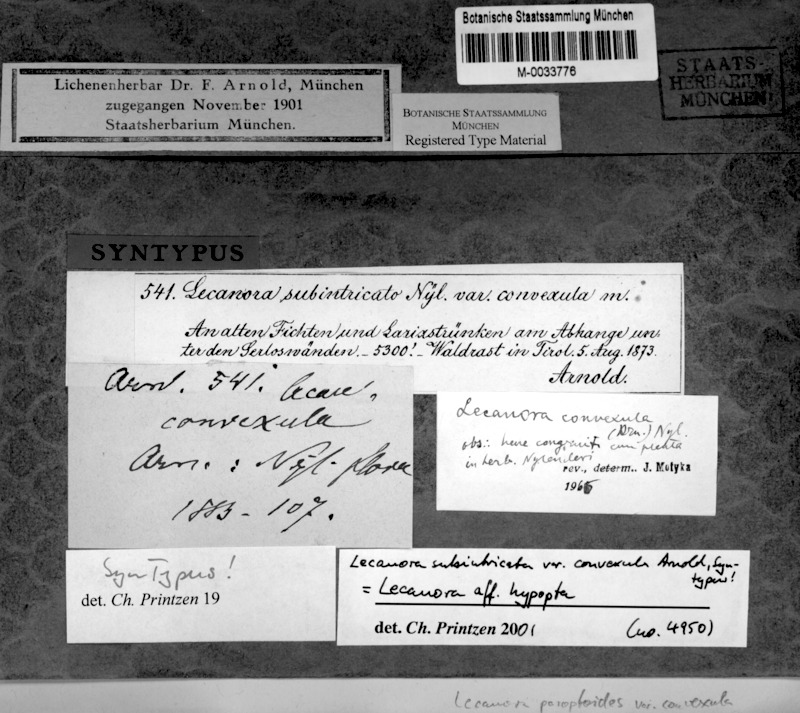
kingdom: Fungi
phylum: Ascomycota
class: Lecanoromycetes
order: Lecanorales
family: Lecanoraceae
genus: Lecanora
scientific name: Lecanora hypoptoides
